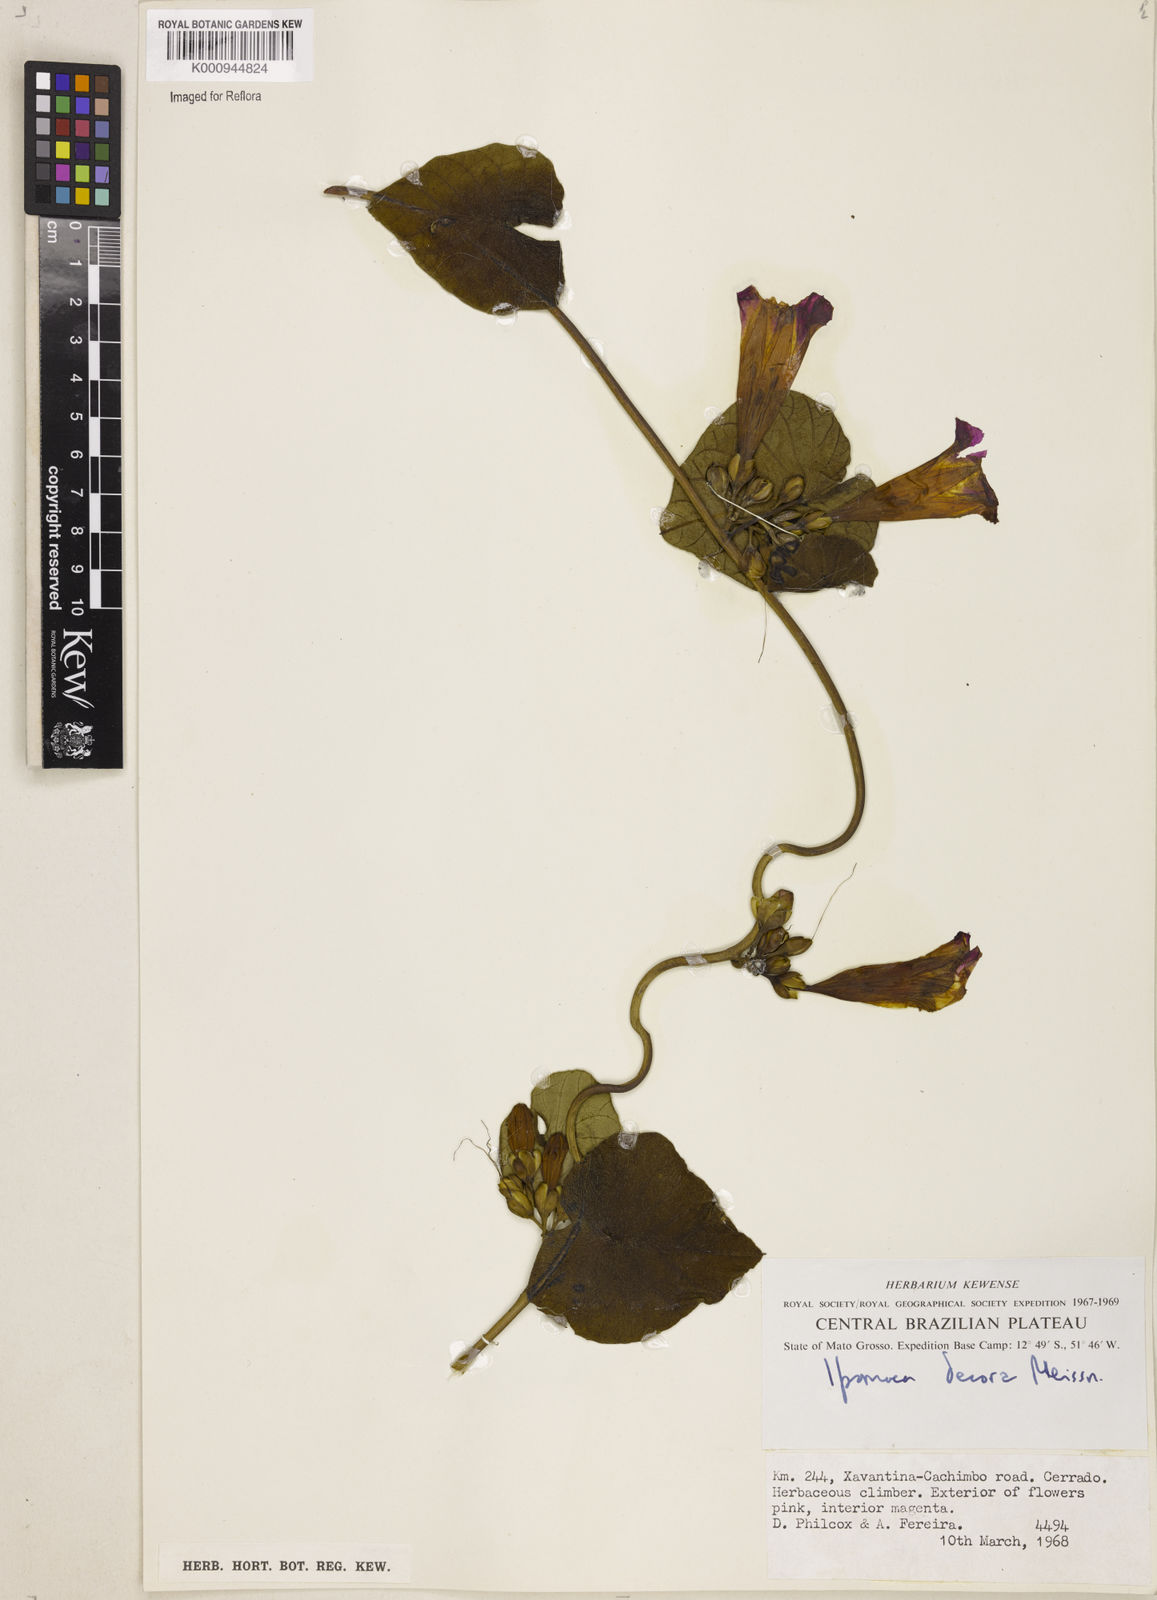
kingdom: Plantae
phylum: Tracheophyta
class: Magnoliopsida
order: Solanales
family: Convolvulaceae
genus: Ipomoea
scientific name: Ipomoea goyazensis
